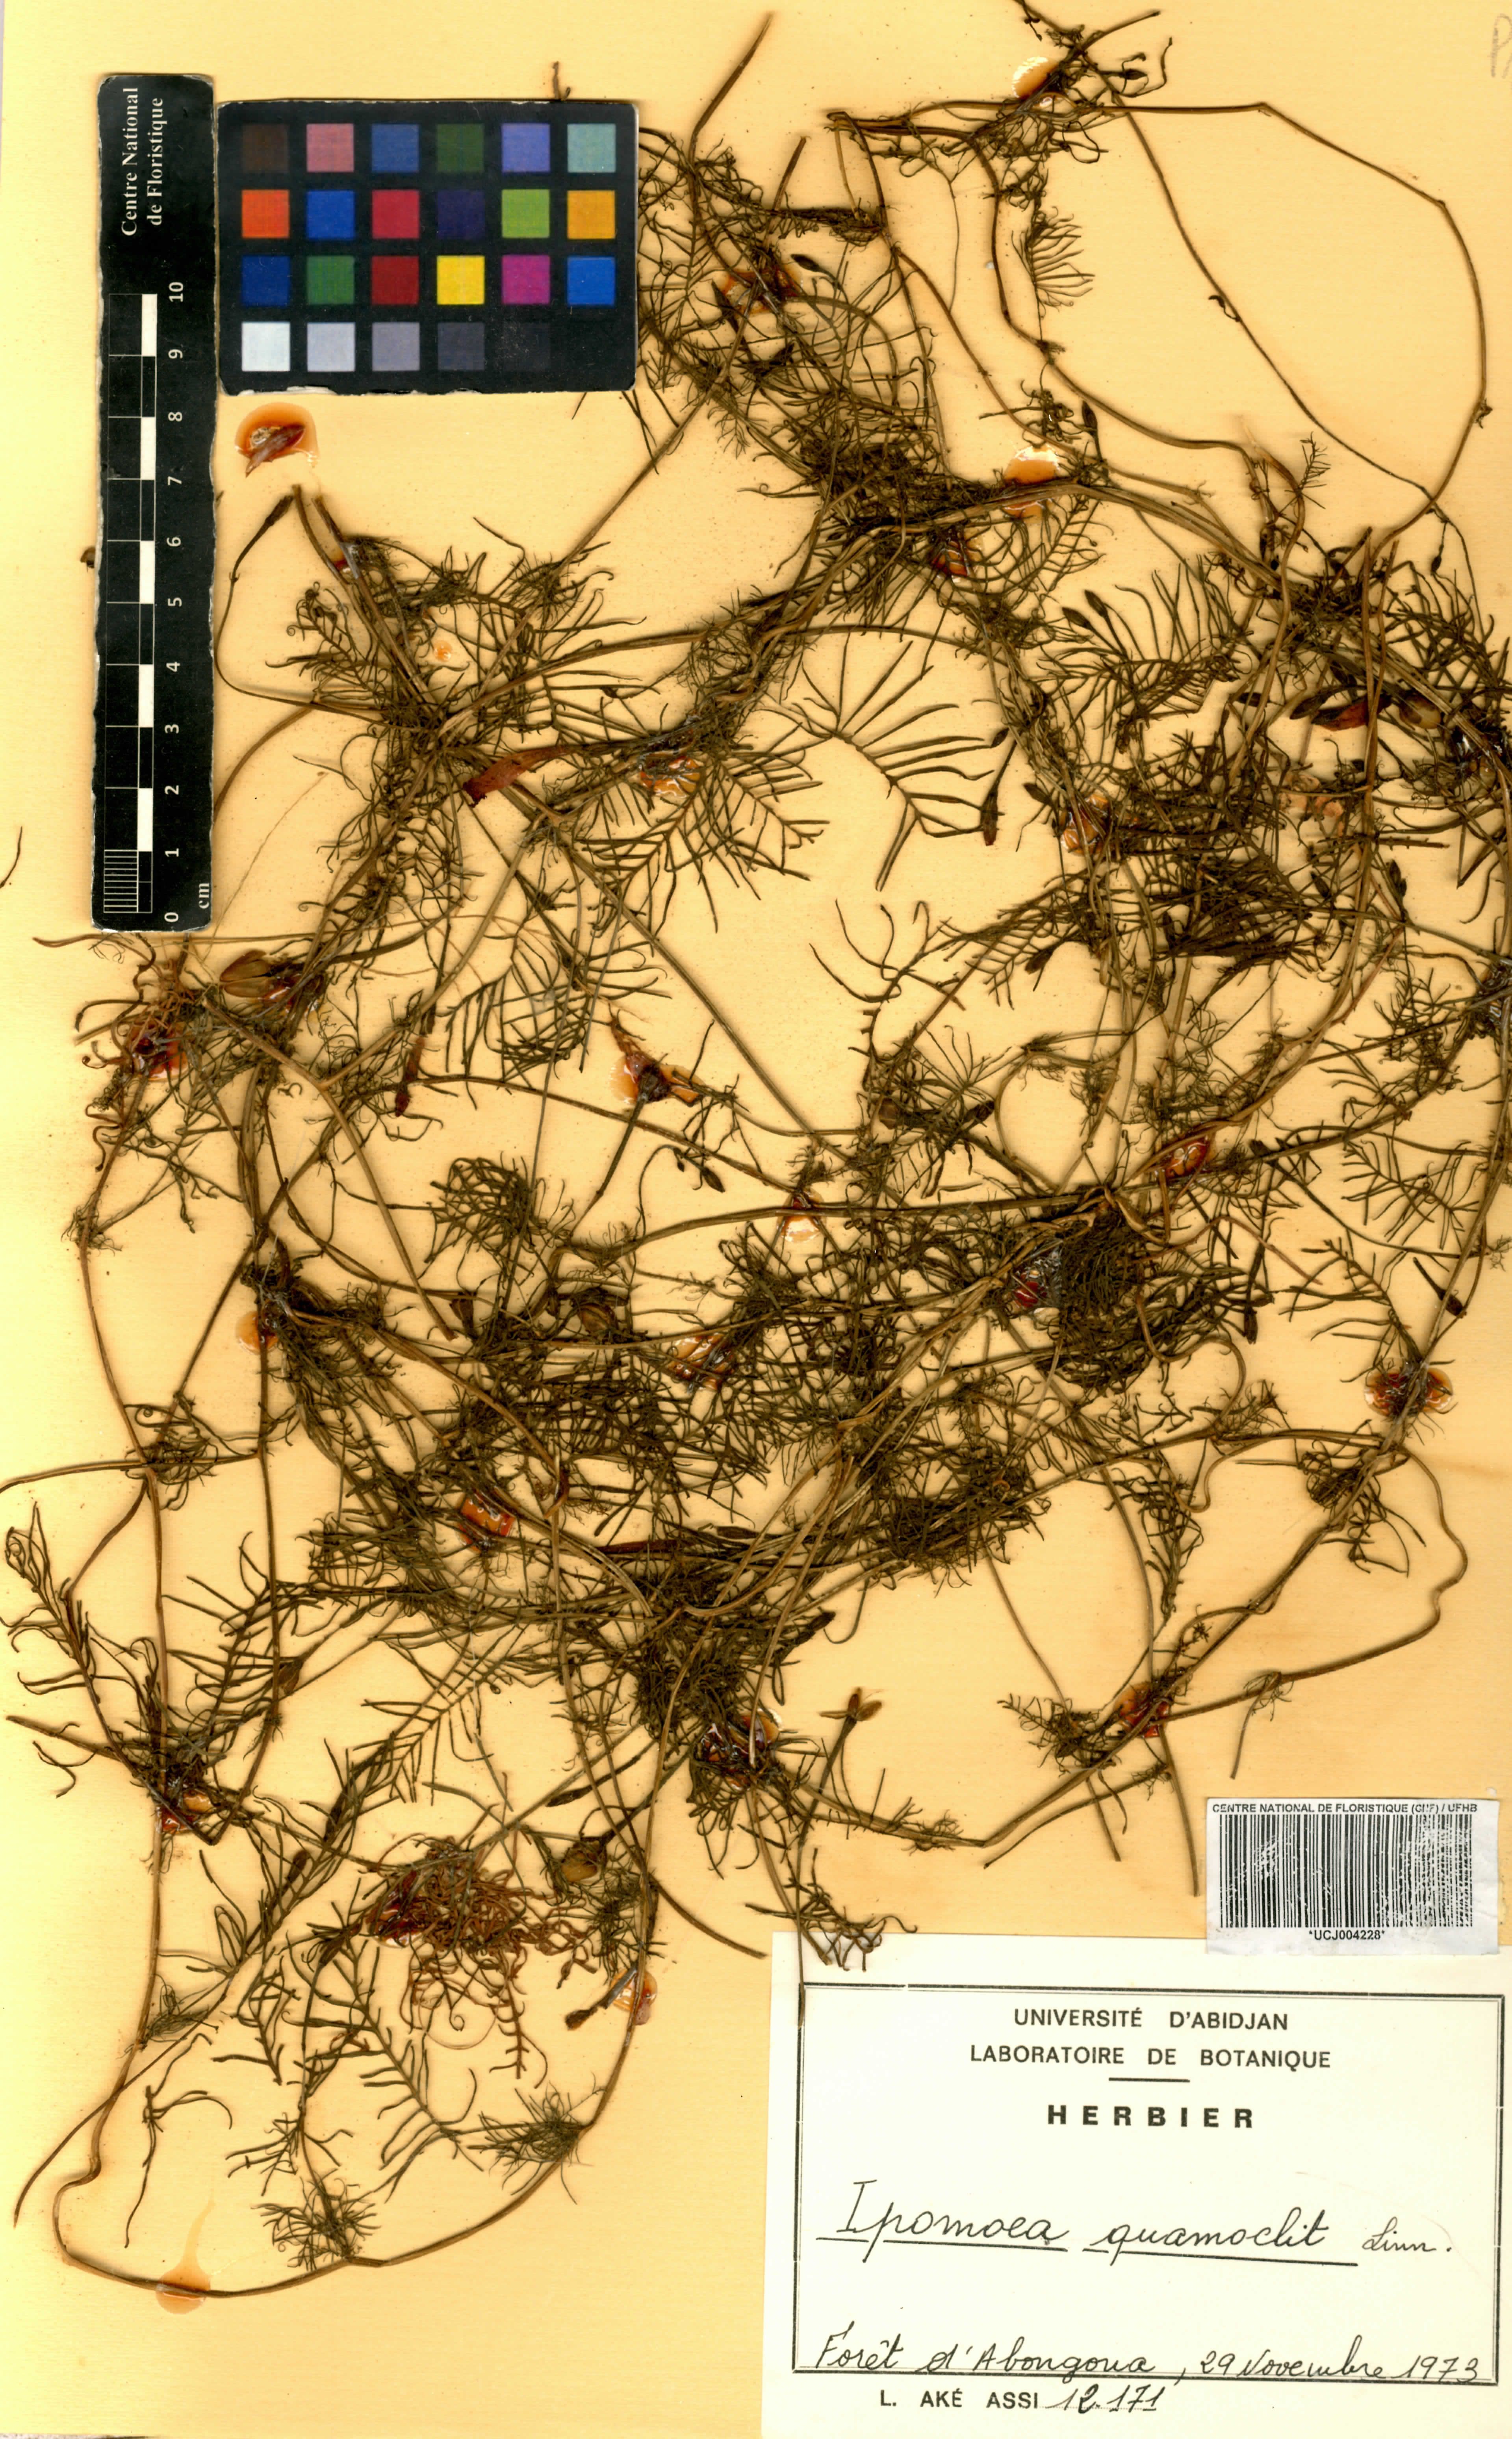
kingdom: Plantae
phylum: Tracheophyta
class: Magnoliopsida
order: Solanales
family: Convolvulaceae
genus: Ipomoea
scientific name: Ipomoea quamoclit
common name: Cypress vine
